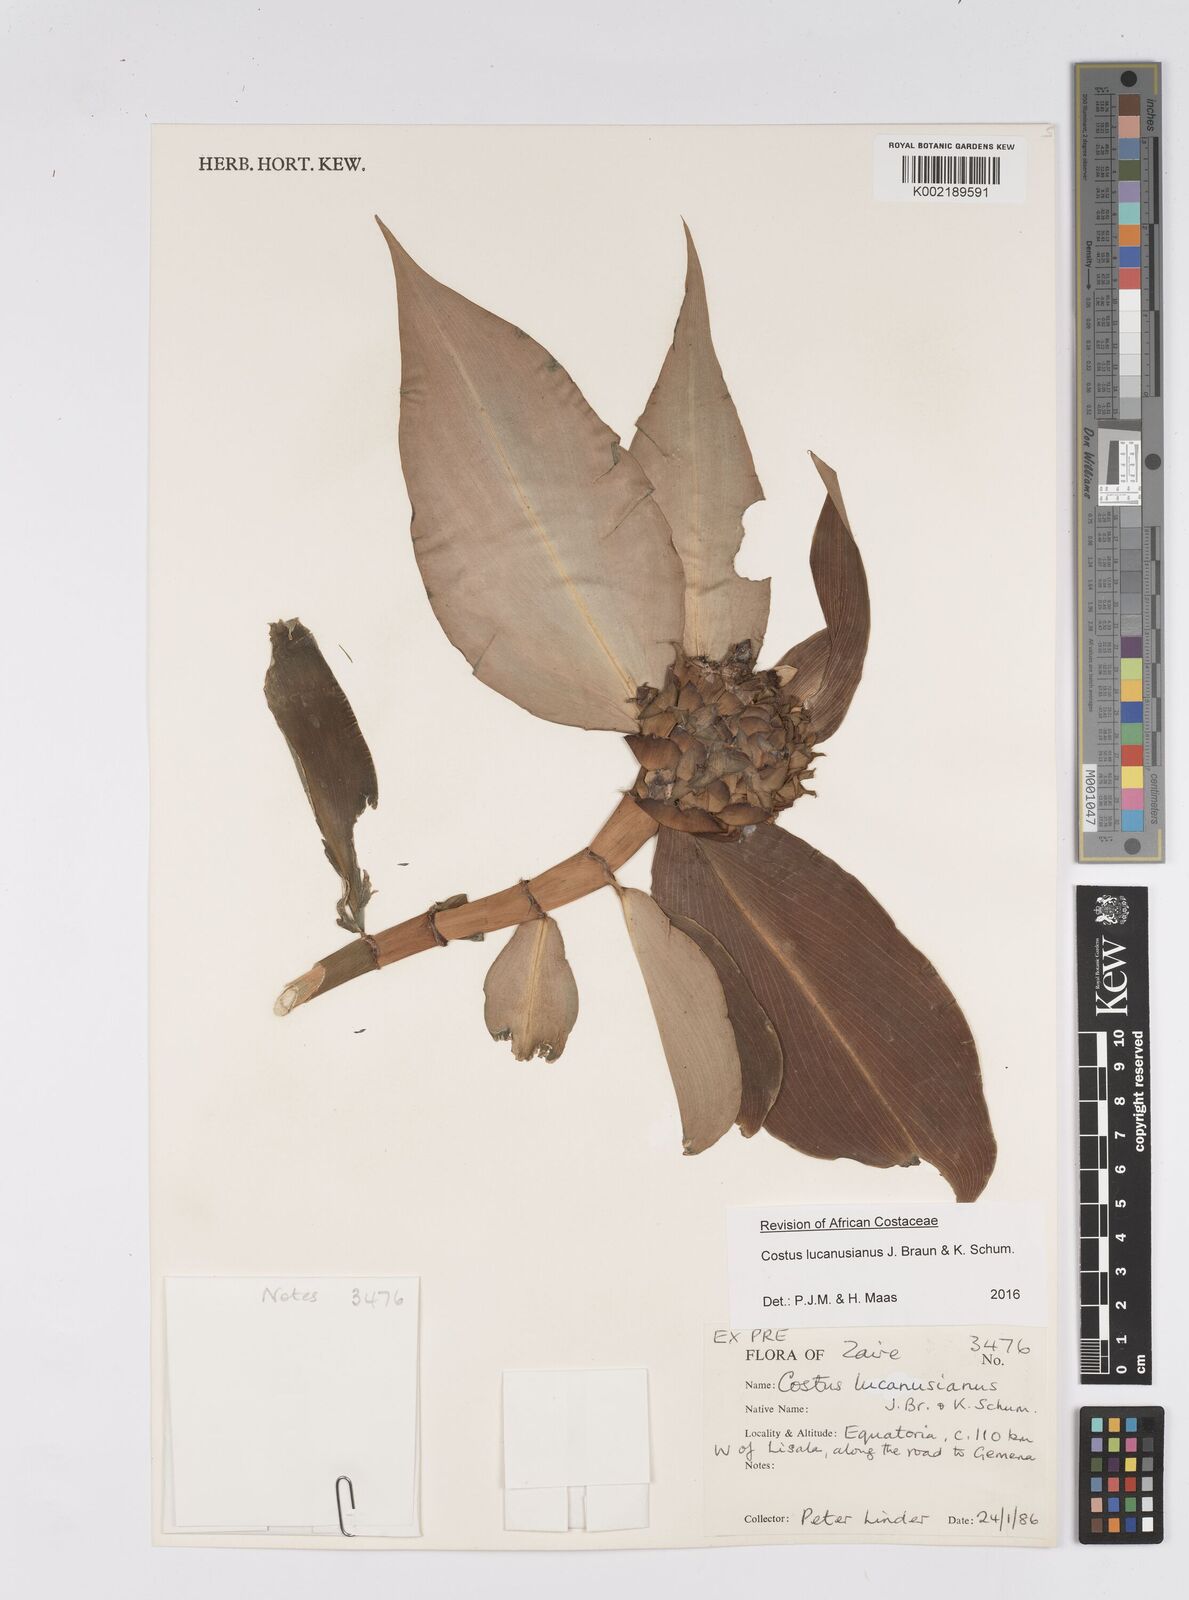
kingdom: Plantae
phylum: Tracheophyta
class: Liliopsida
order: Zingiberales
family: Costaceae
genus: Costus
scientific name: Costus lucanusianus
